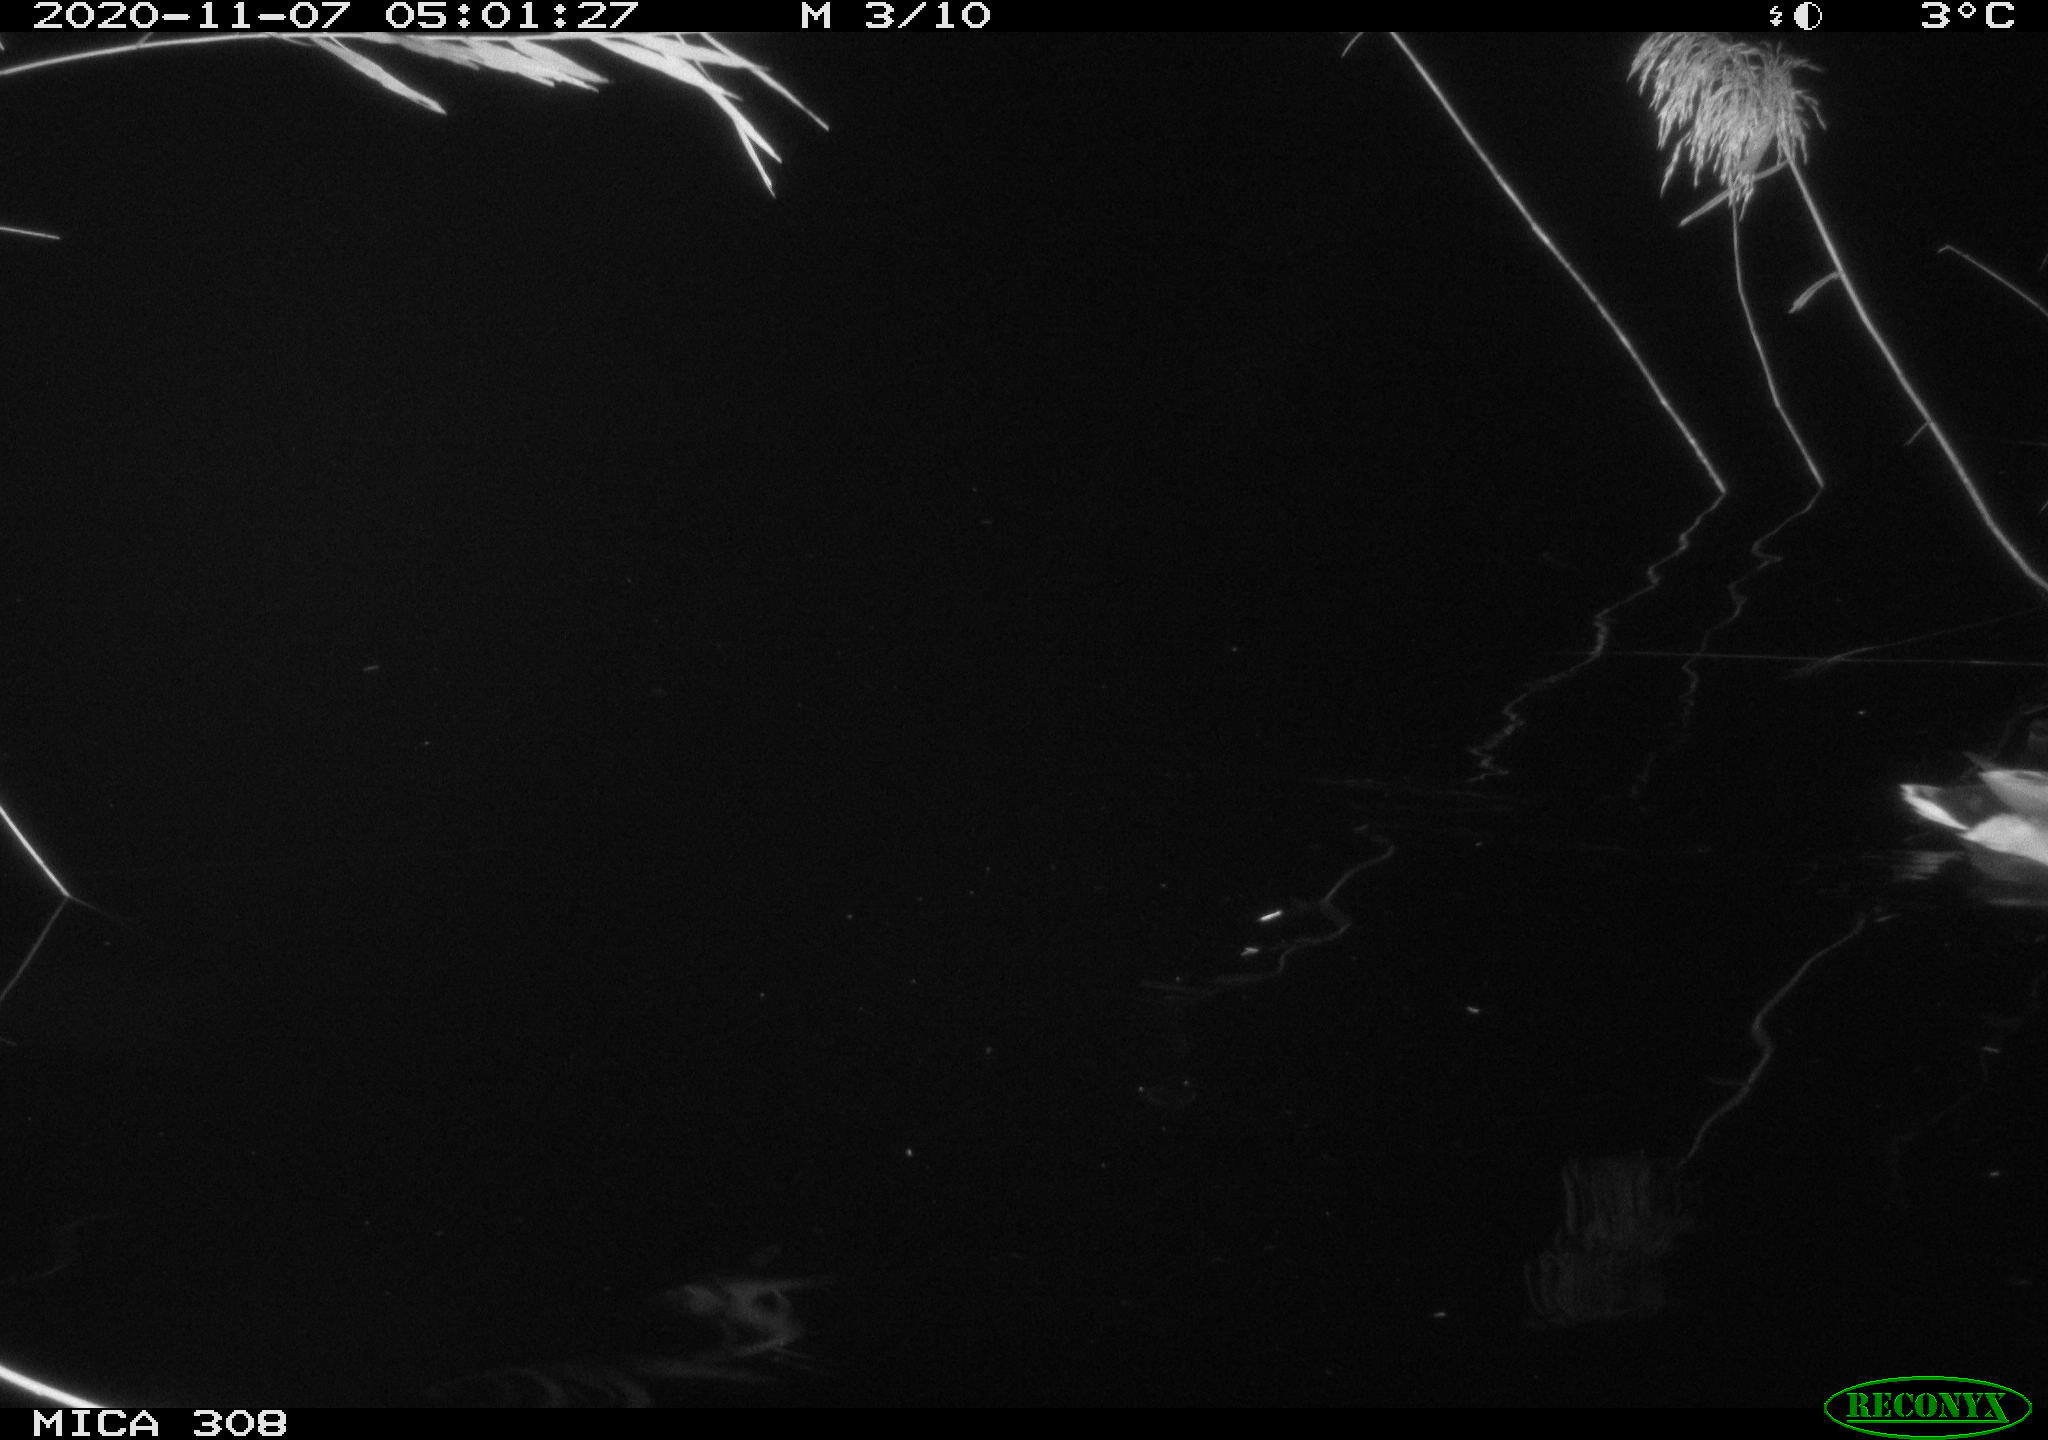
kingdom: Animalia
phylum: Chordata
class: Aves
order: Anseriformes
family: Anatidae
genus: Anas
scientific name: Anas platyrhynchos
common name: Mallard
